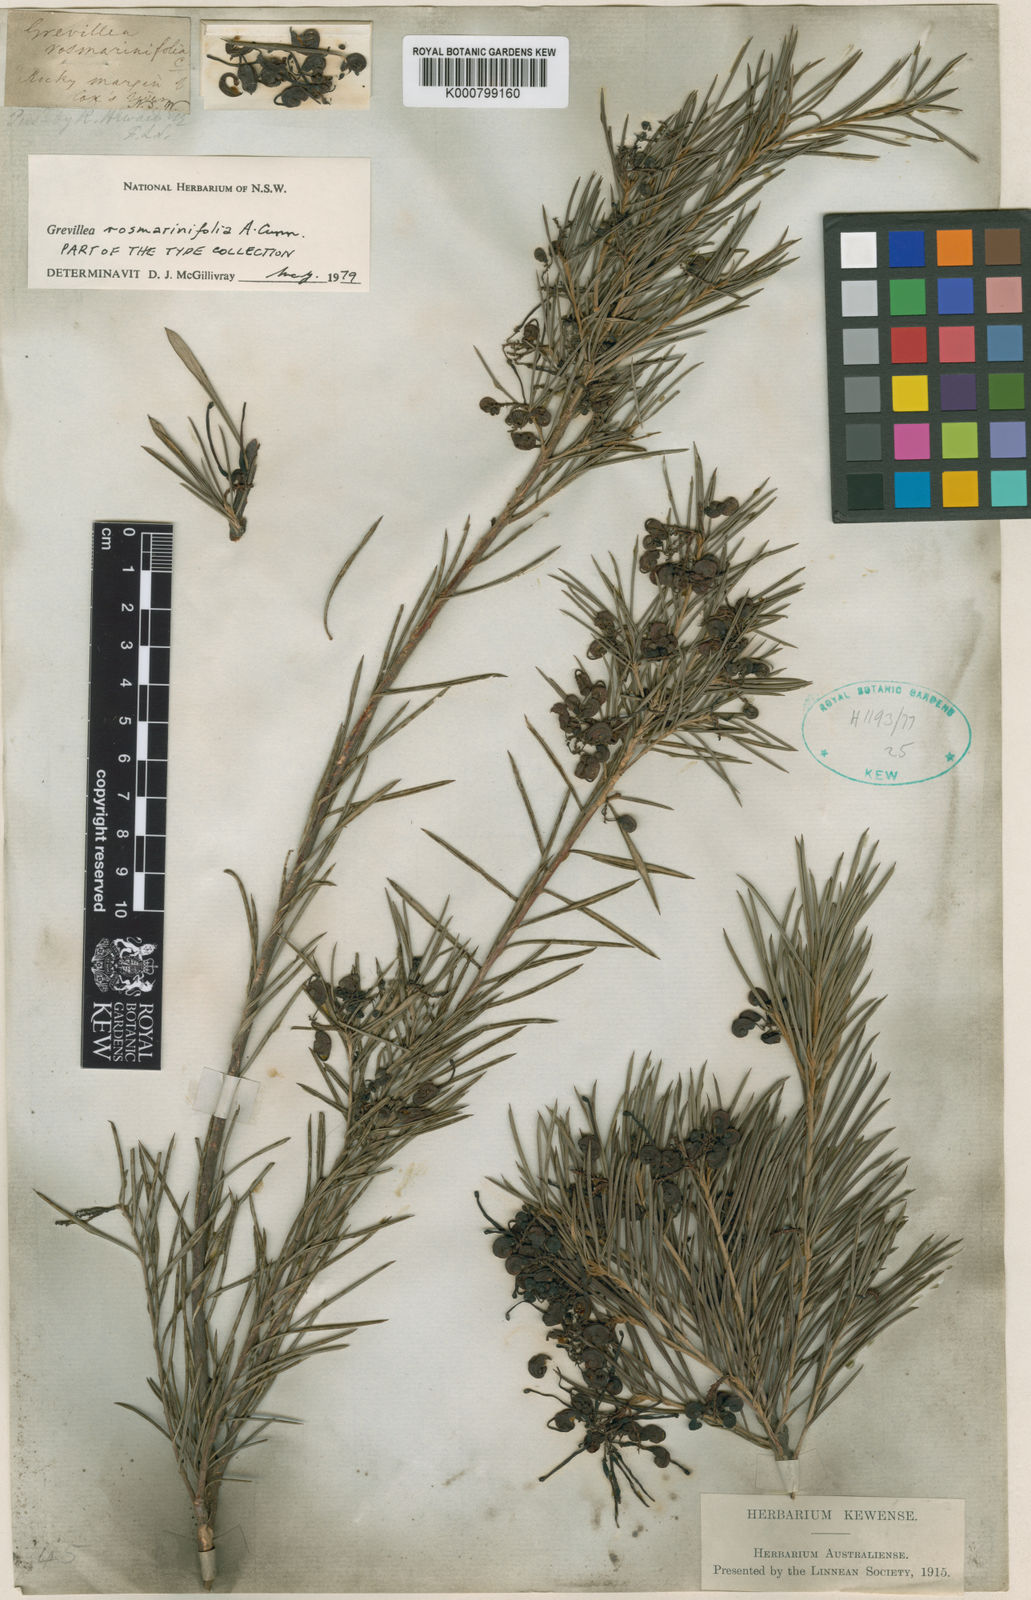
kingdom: Plantae
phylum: Tracheophyta
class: Magnoliopsida
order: Proteales
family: Proteaceae
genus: Grevillea
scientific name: Grevillea rosmarinifolia
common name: Rosemary grevillea
